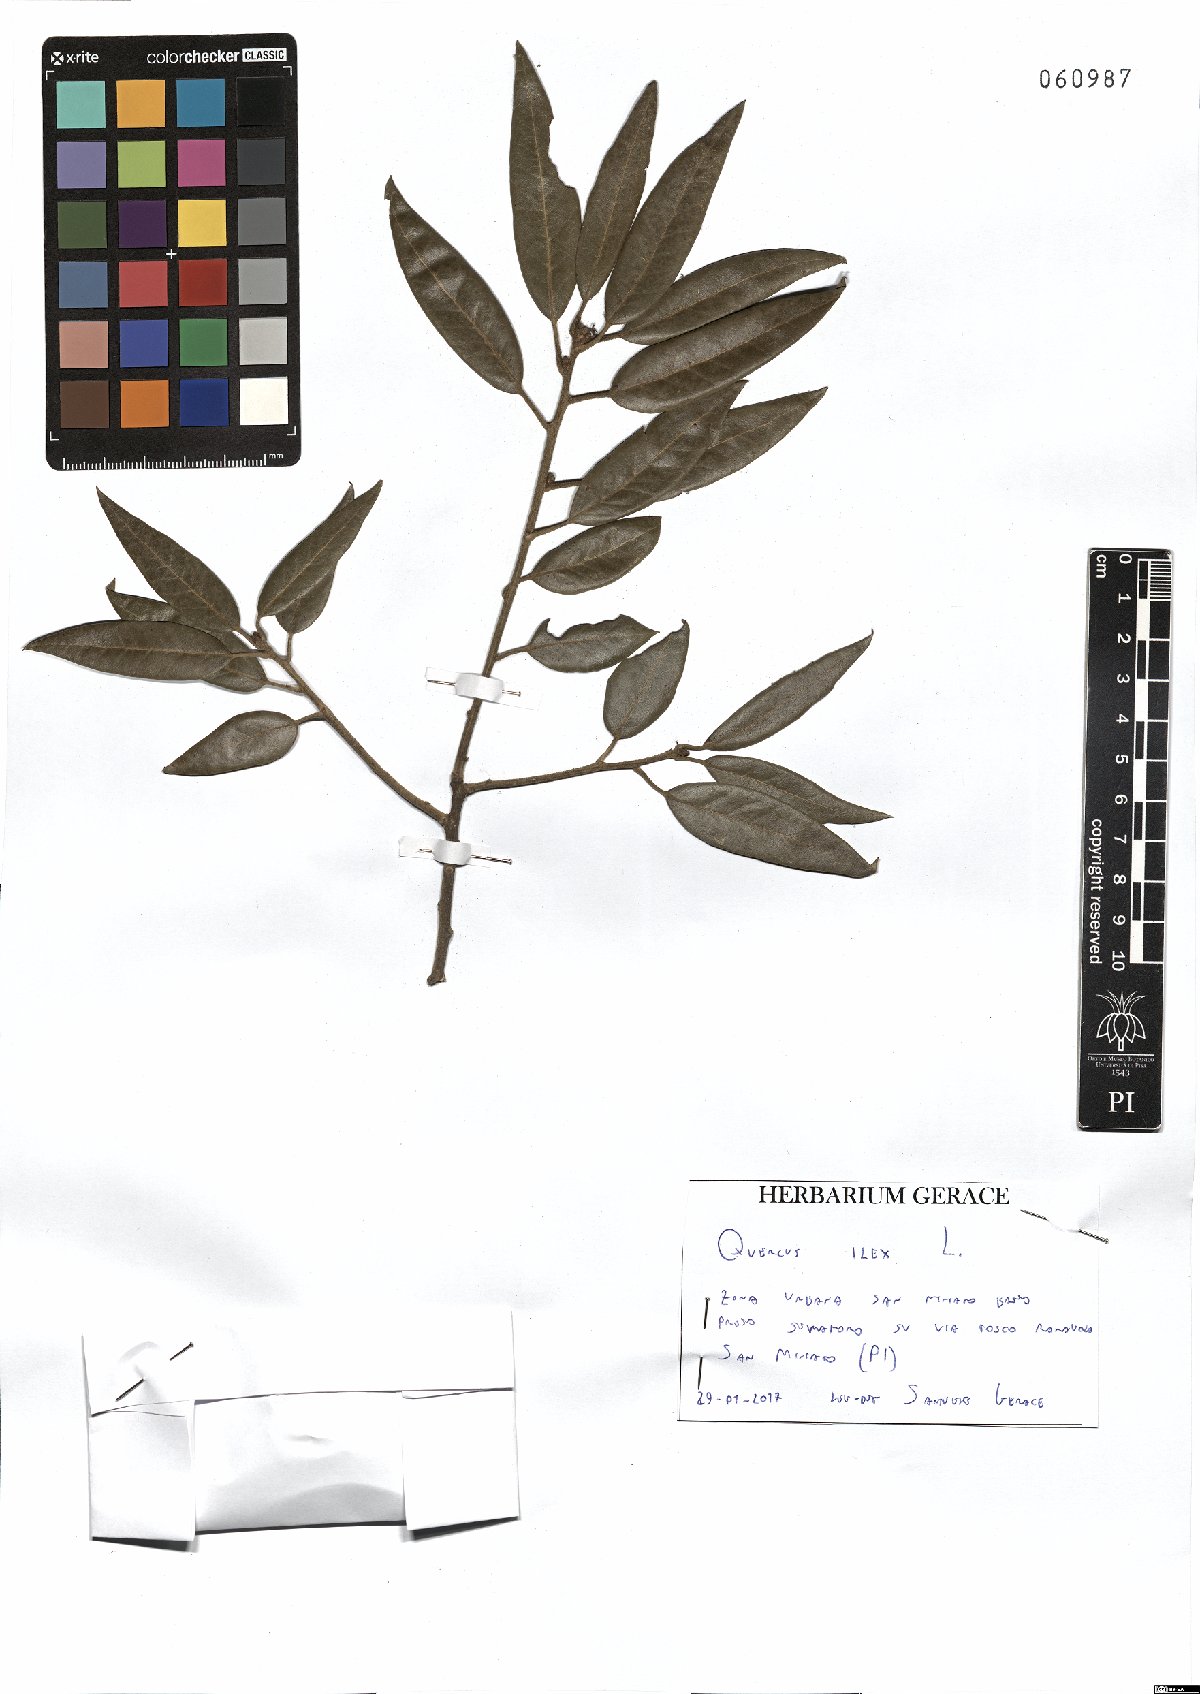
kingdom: Plantae
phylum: Tracheophyta
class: Magnoliopsida
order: Fagales
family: Fagaceae
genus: Quercus
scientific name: Quercus ilex
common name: Evergreen oak
